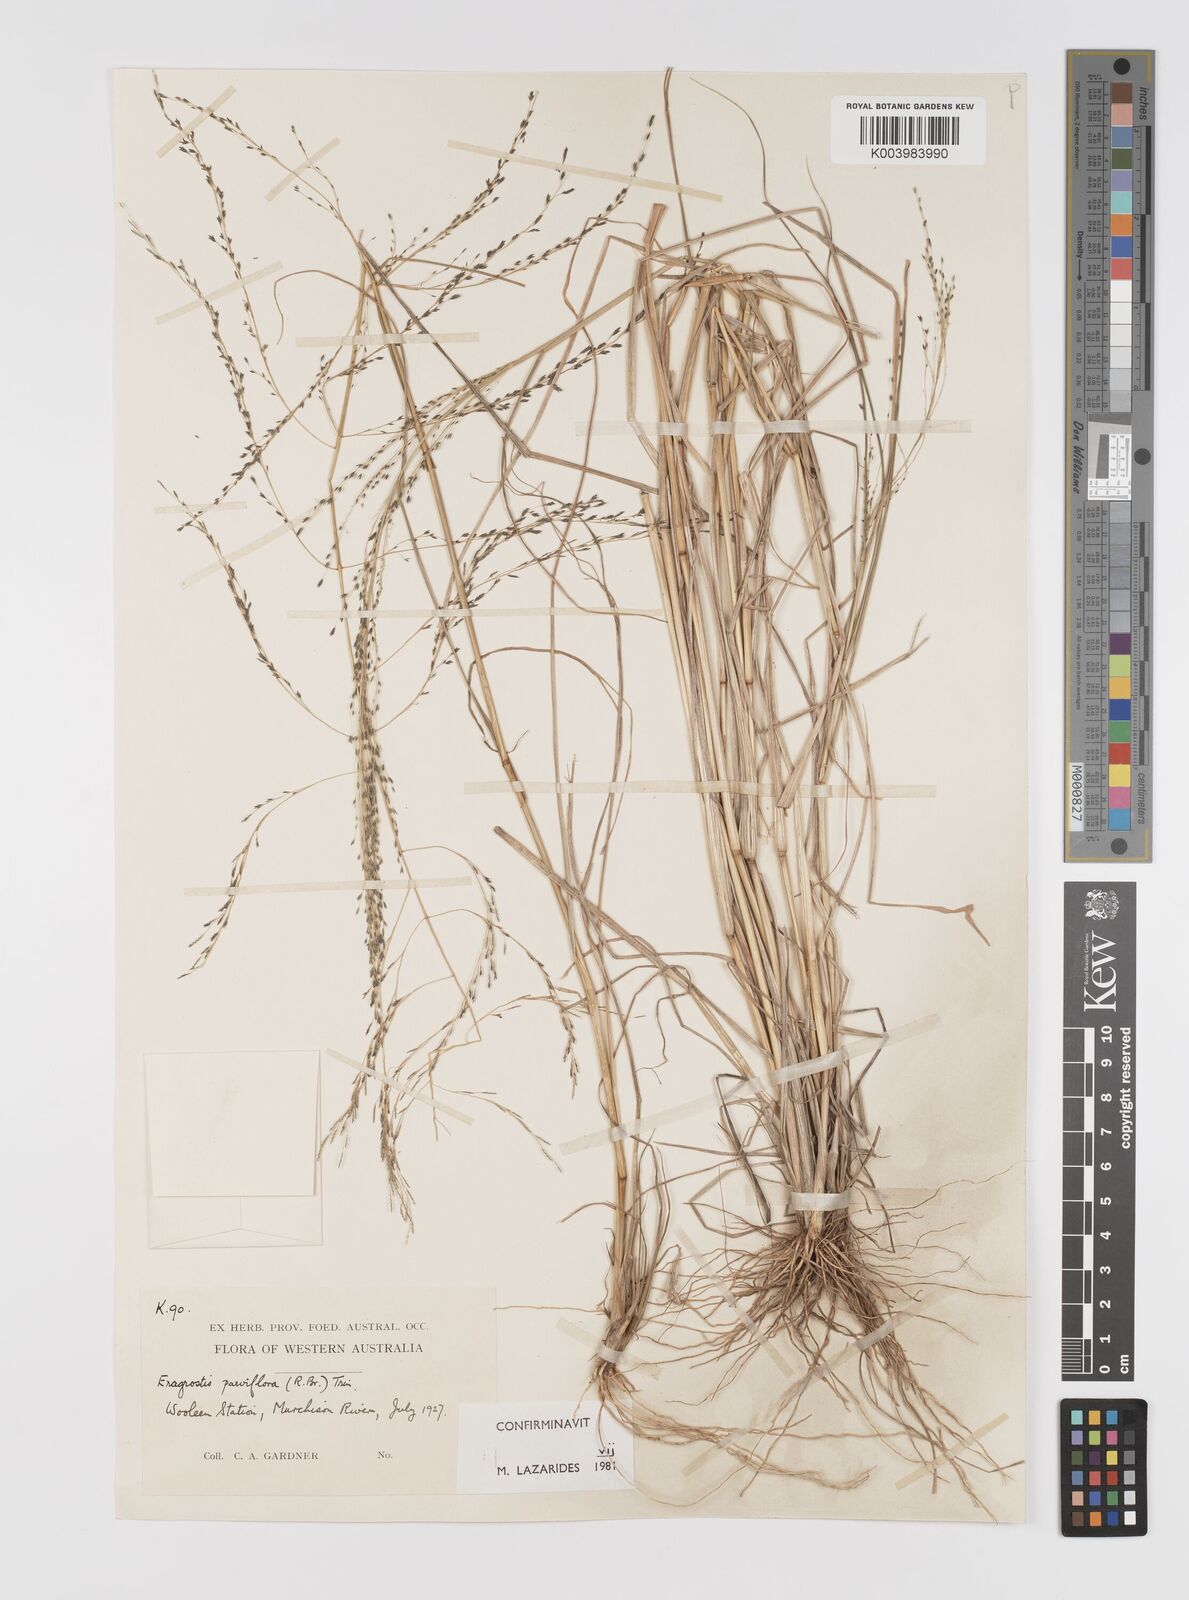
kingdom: Plantae
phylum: Tracheophyta
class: Liliopsida
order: Poales
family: Poaceae
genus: Eragrostis
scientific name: Eragrostis parviflora
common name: Weeping love-grass
